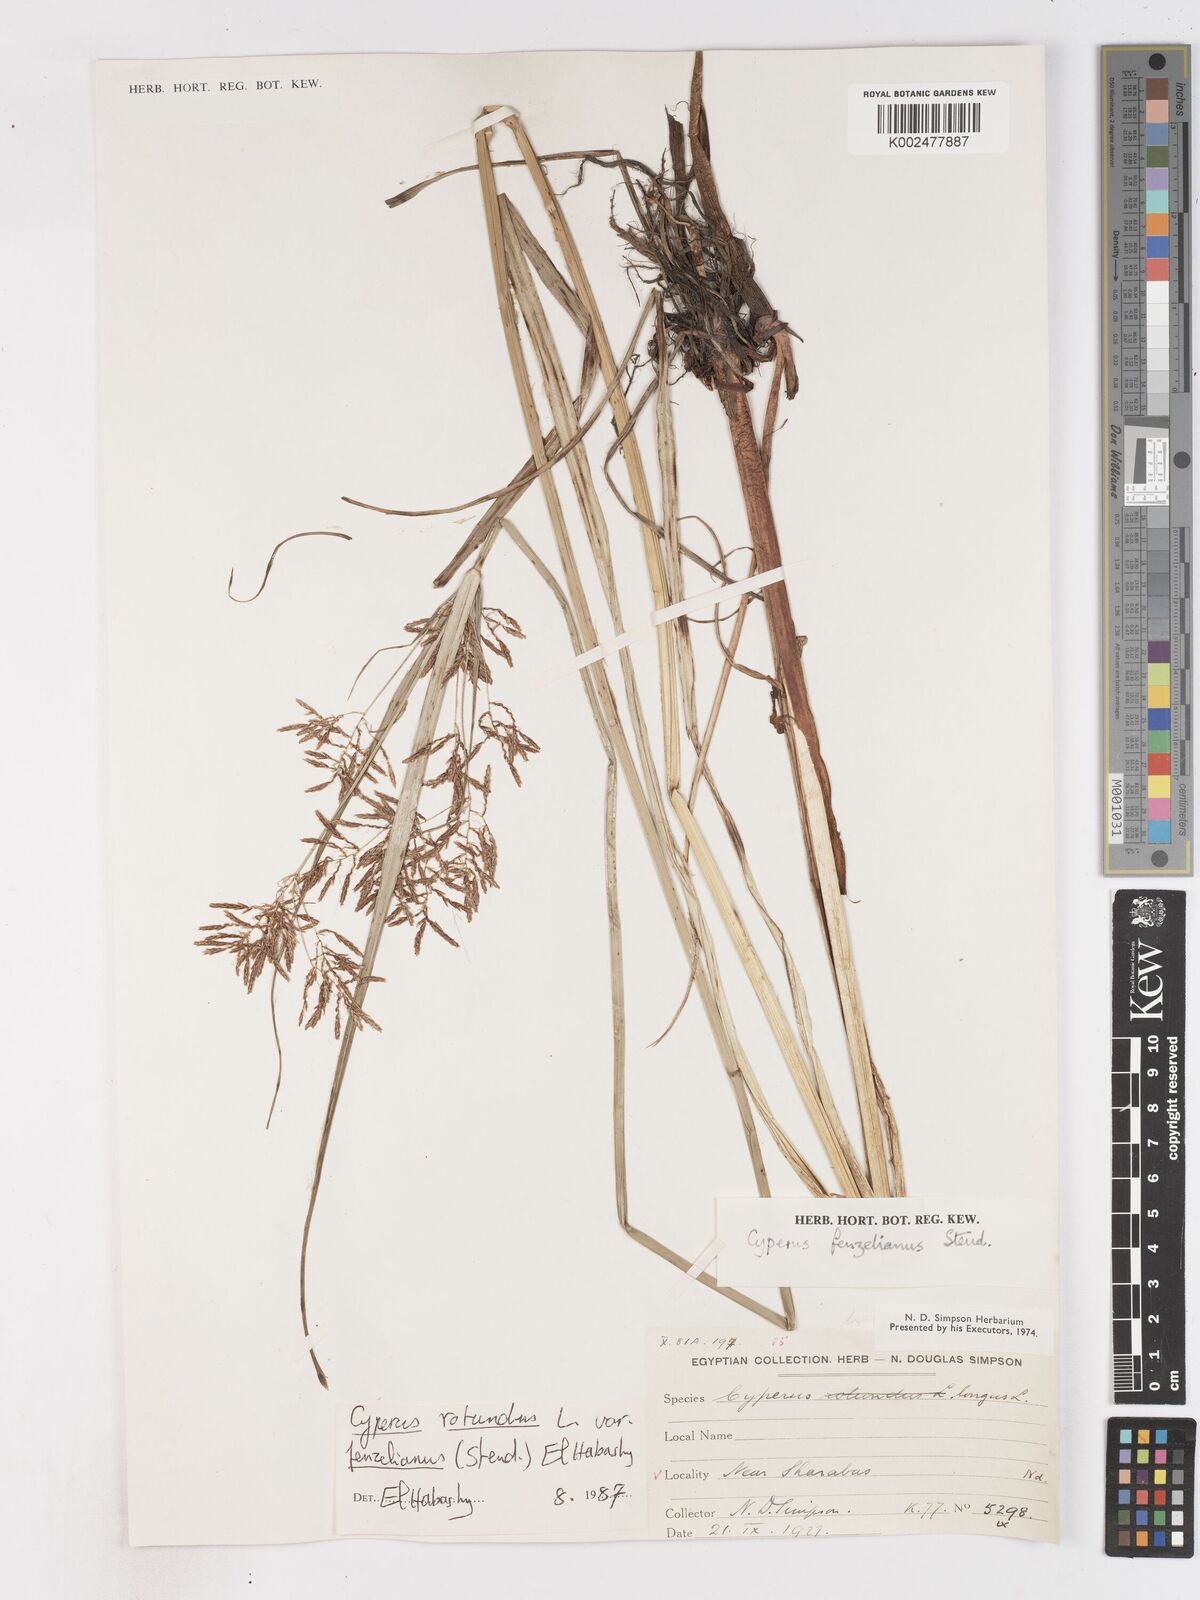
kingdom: Plantae
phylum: Tracheophyta
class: Liliopsida
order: Poales
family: Cyperaceae
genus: Cyperus
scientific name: Cyperus longus
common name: Galingale
